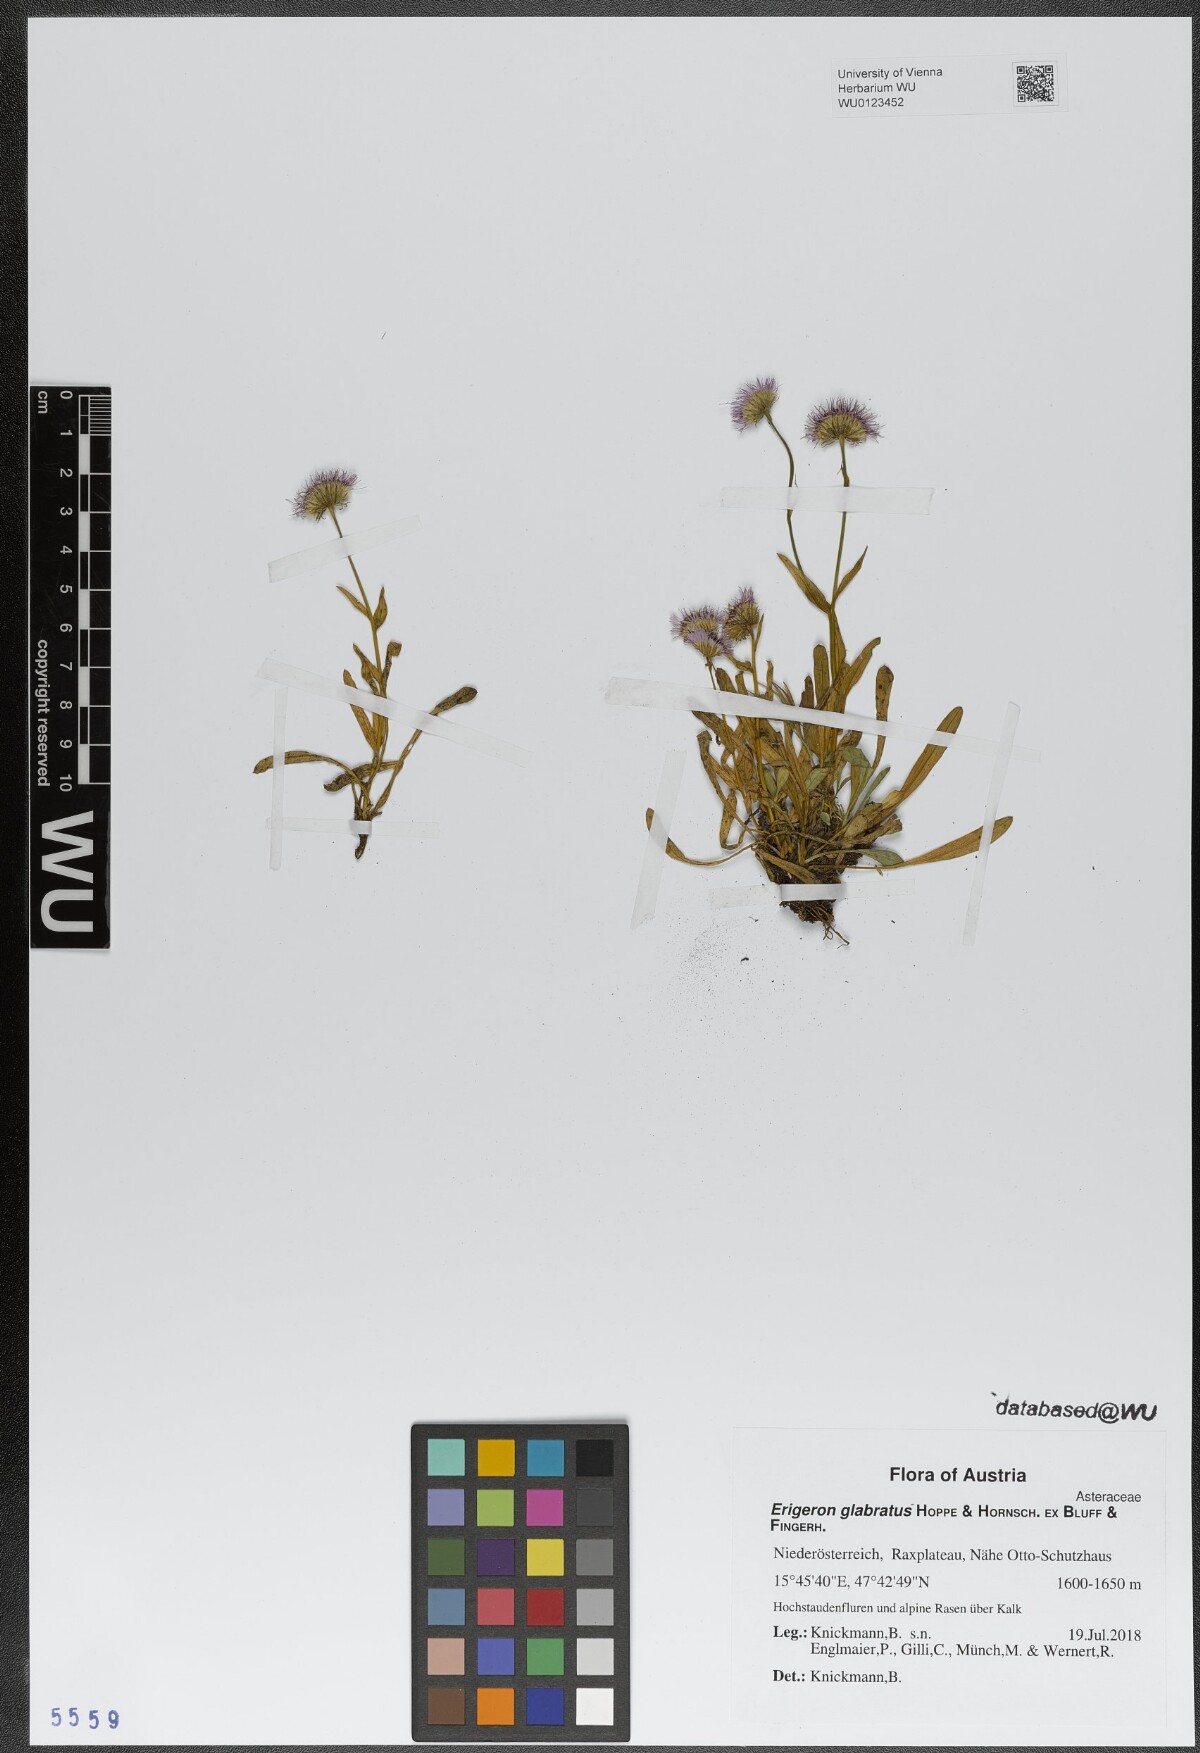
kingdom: Plantae
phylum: Tracheophyta
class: Magnoliopsida
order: Asterales
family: Asteraceae
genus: Erigeron
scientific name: Erigeron glabratus
